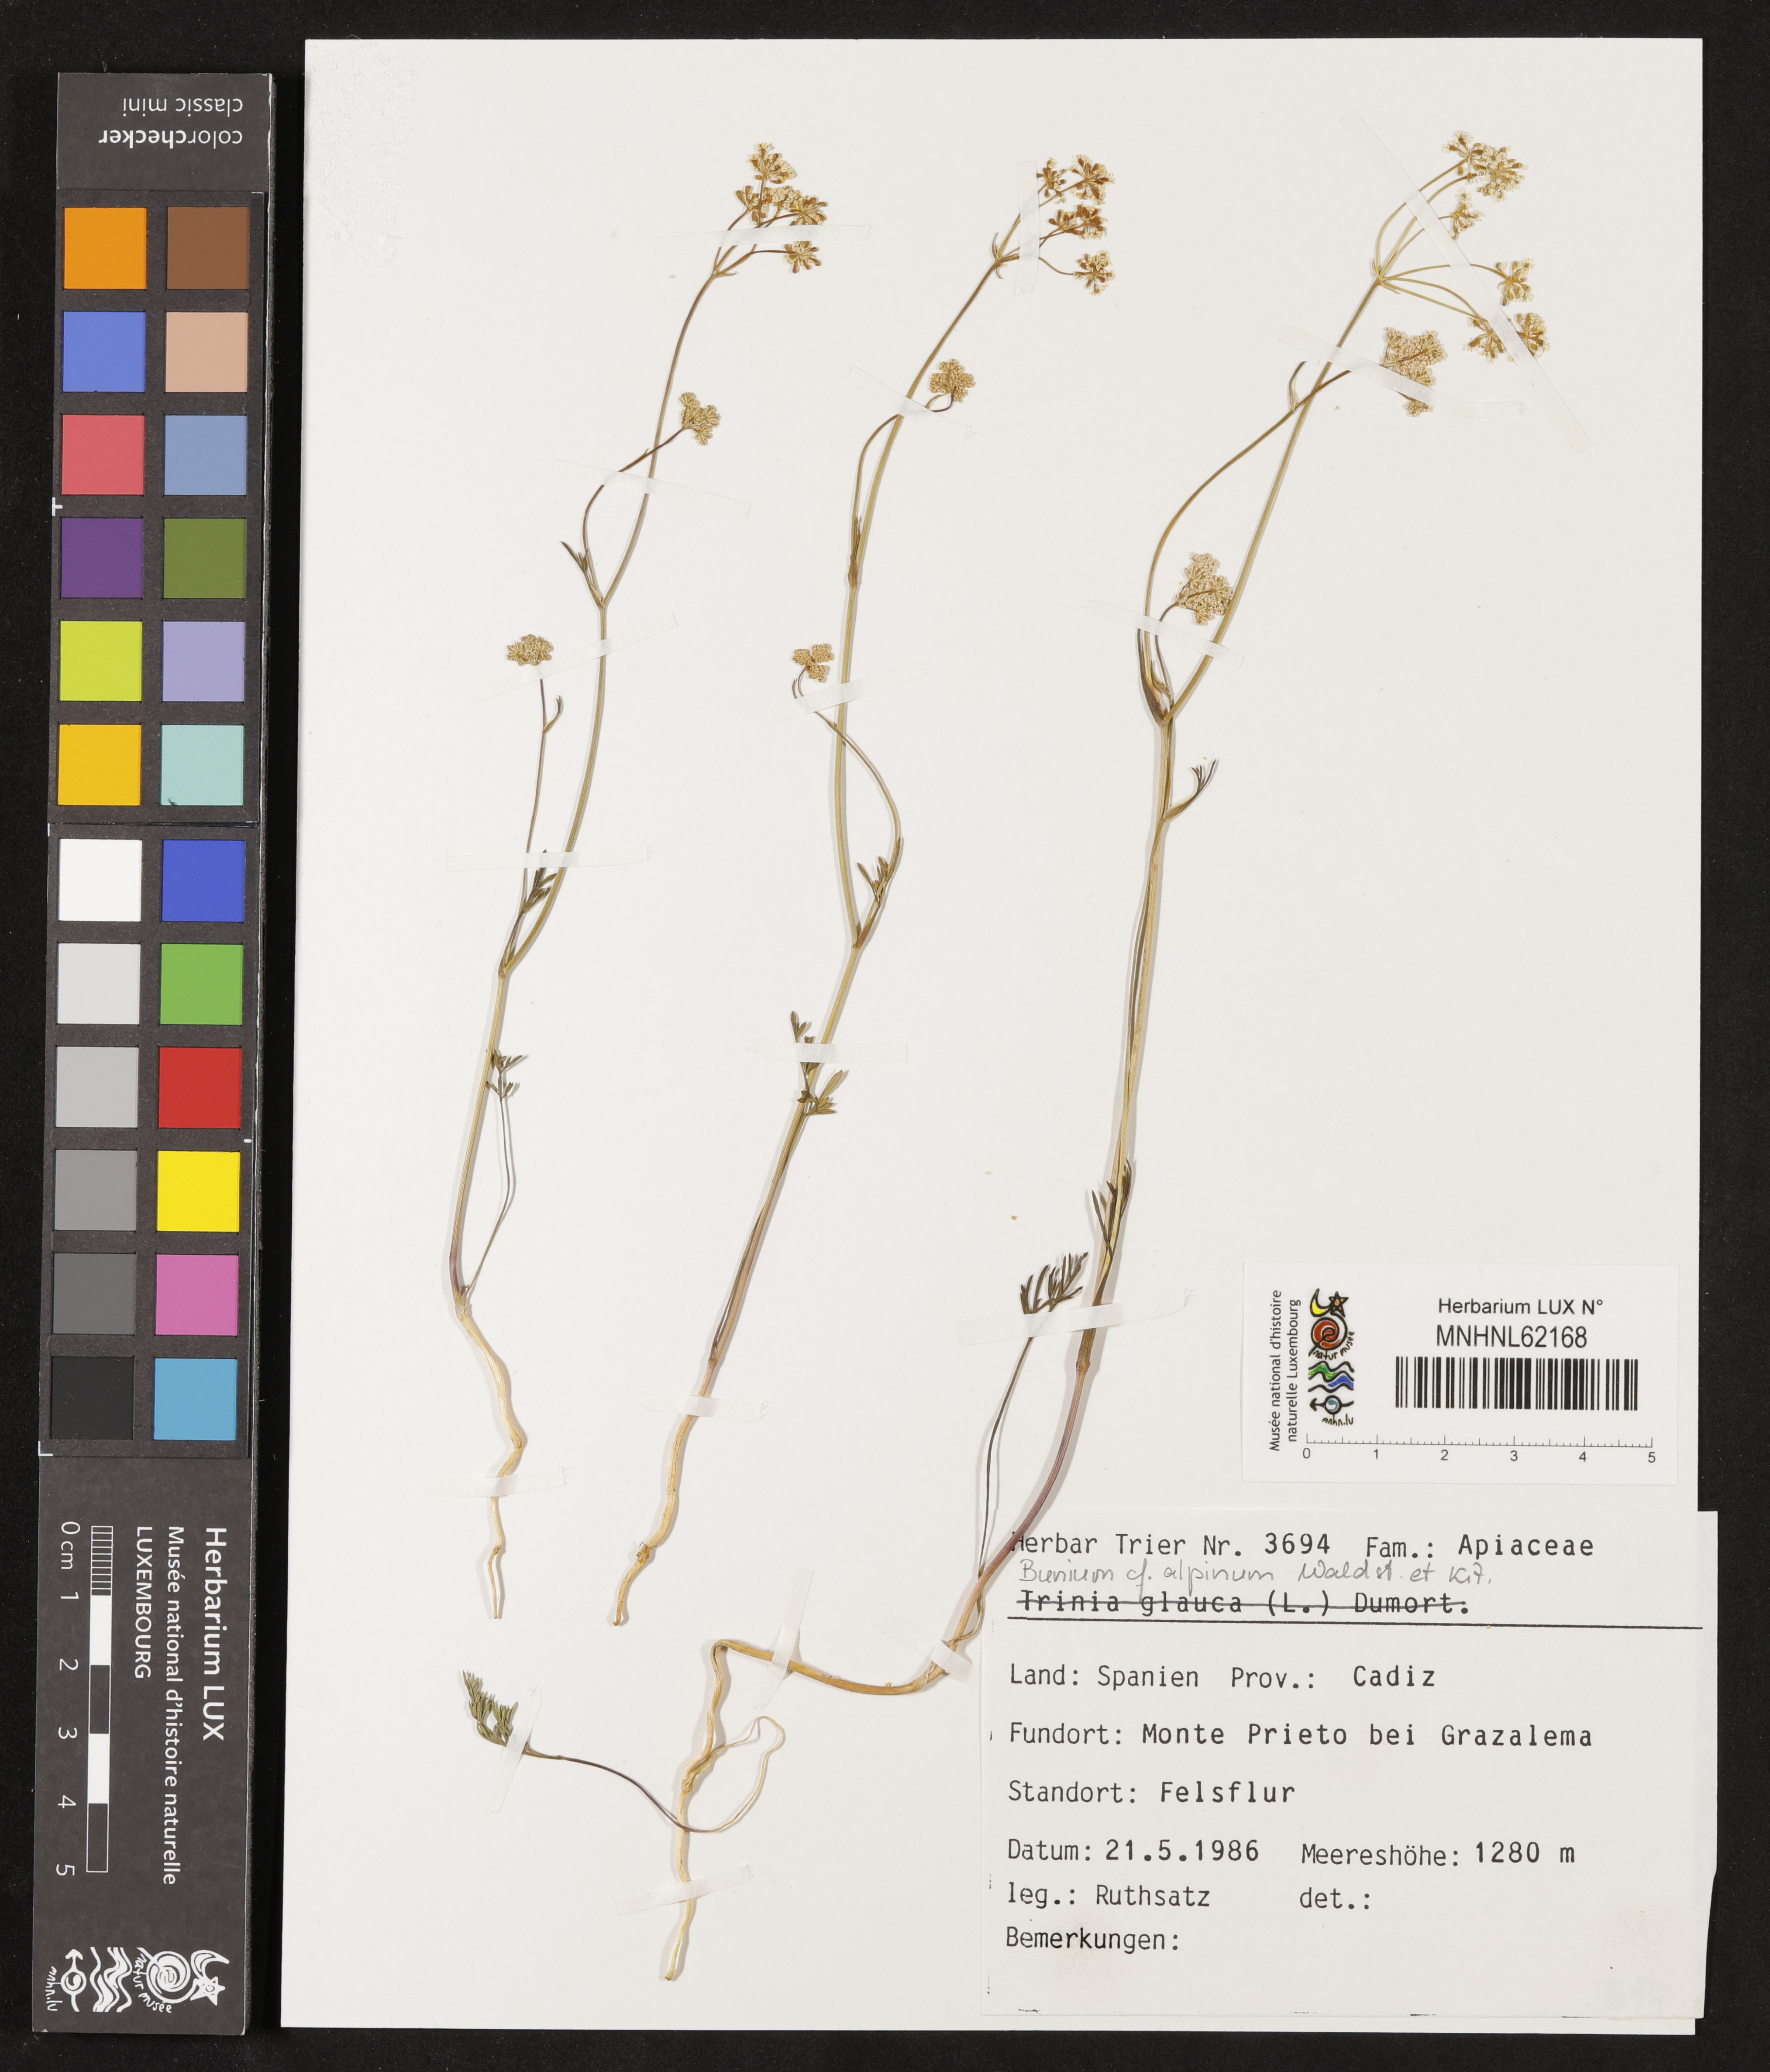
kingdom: Plantae
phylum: Tracheophyta
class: Magnoliopsida
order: Apiales
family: Apiaceae
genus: Bunium
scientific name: Bunium alpinum
